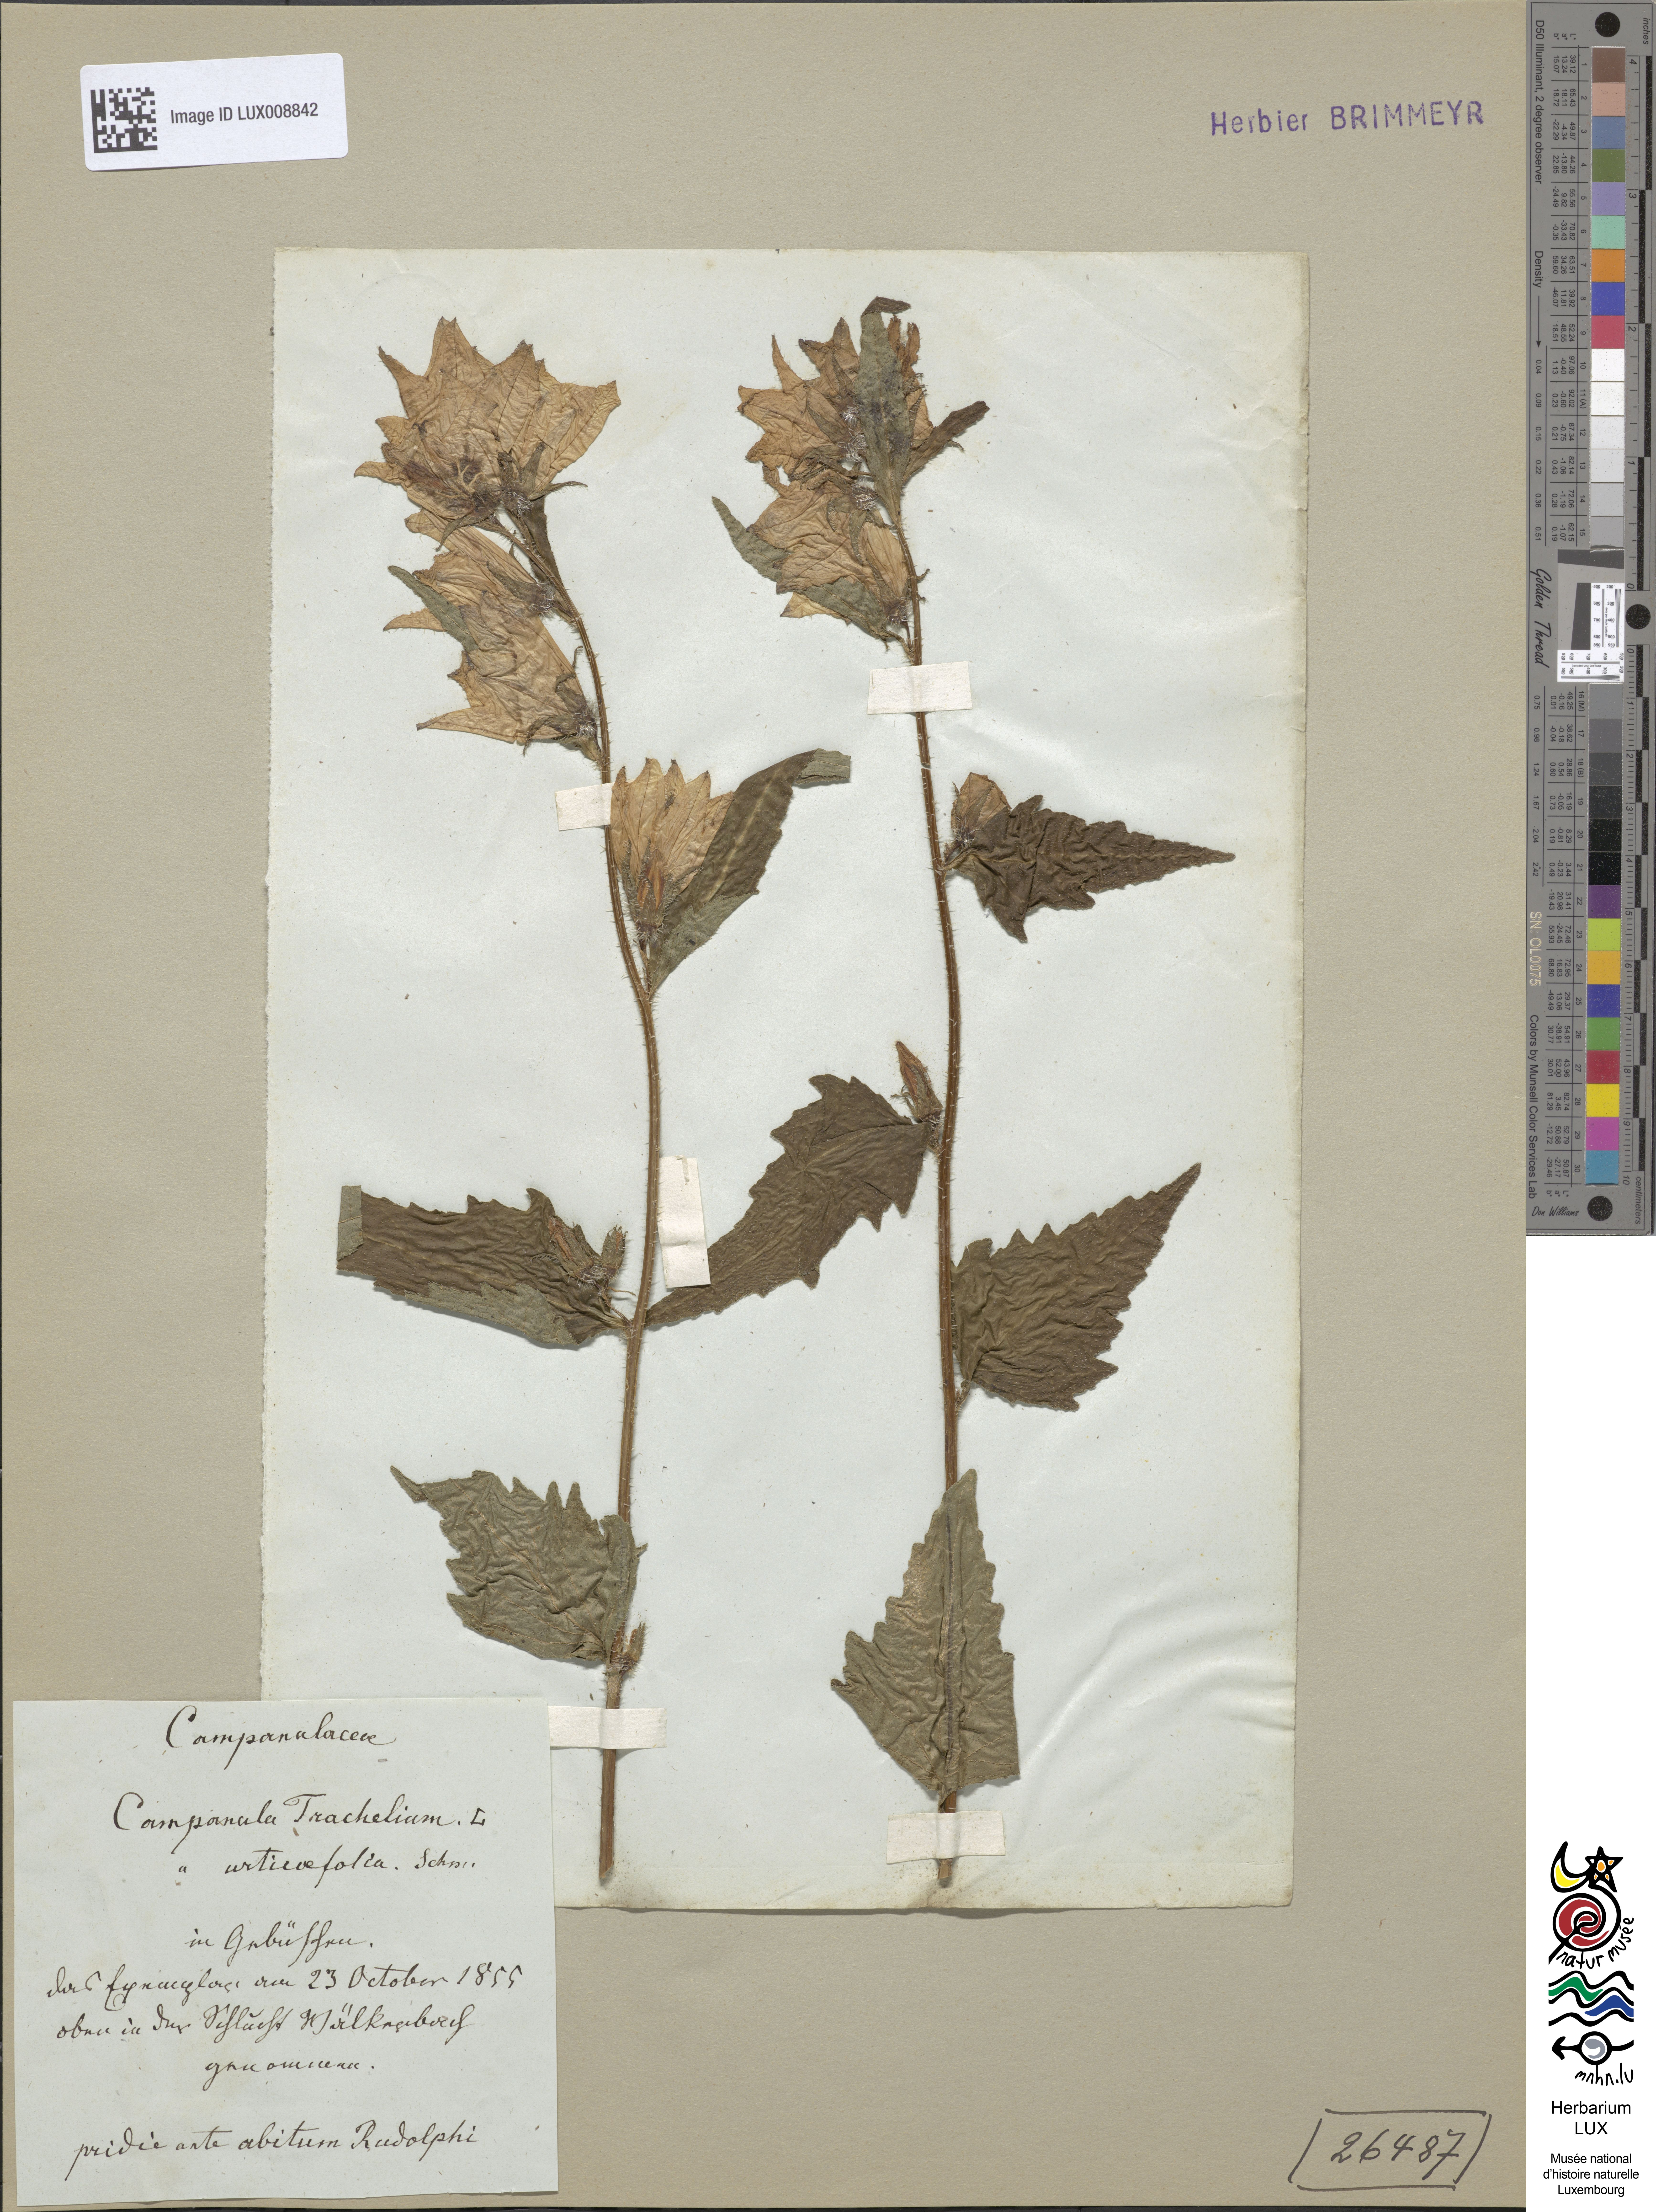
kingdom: Plantae
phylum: Tracheophyta
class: Magnoliopsida
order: Asterales
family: Campanulaceae
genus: Campanula
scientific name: Campanula trachelium
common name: Nettle-leaved bellflower
